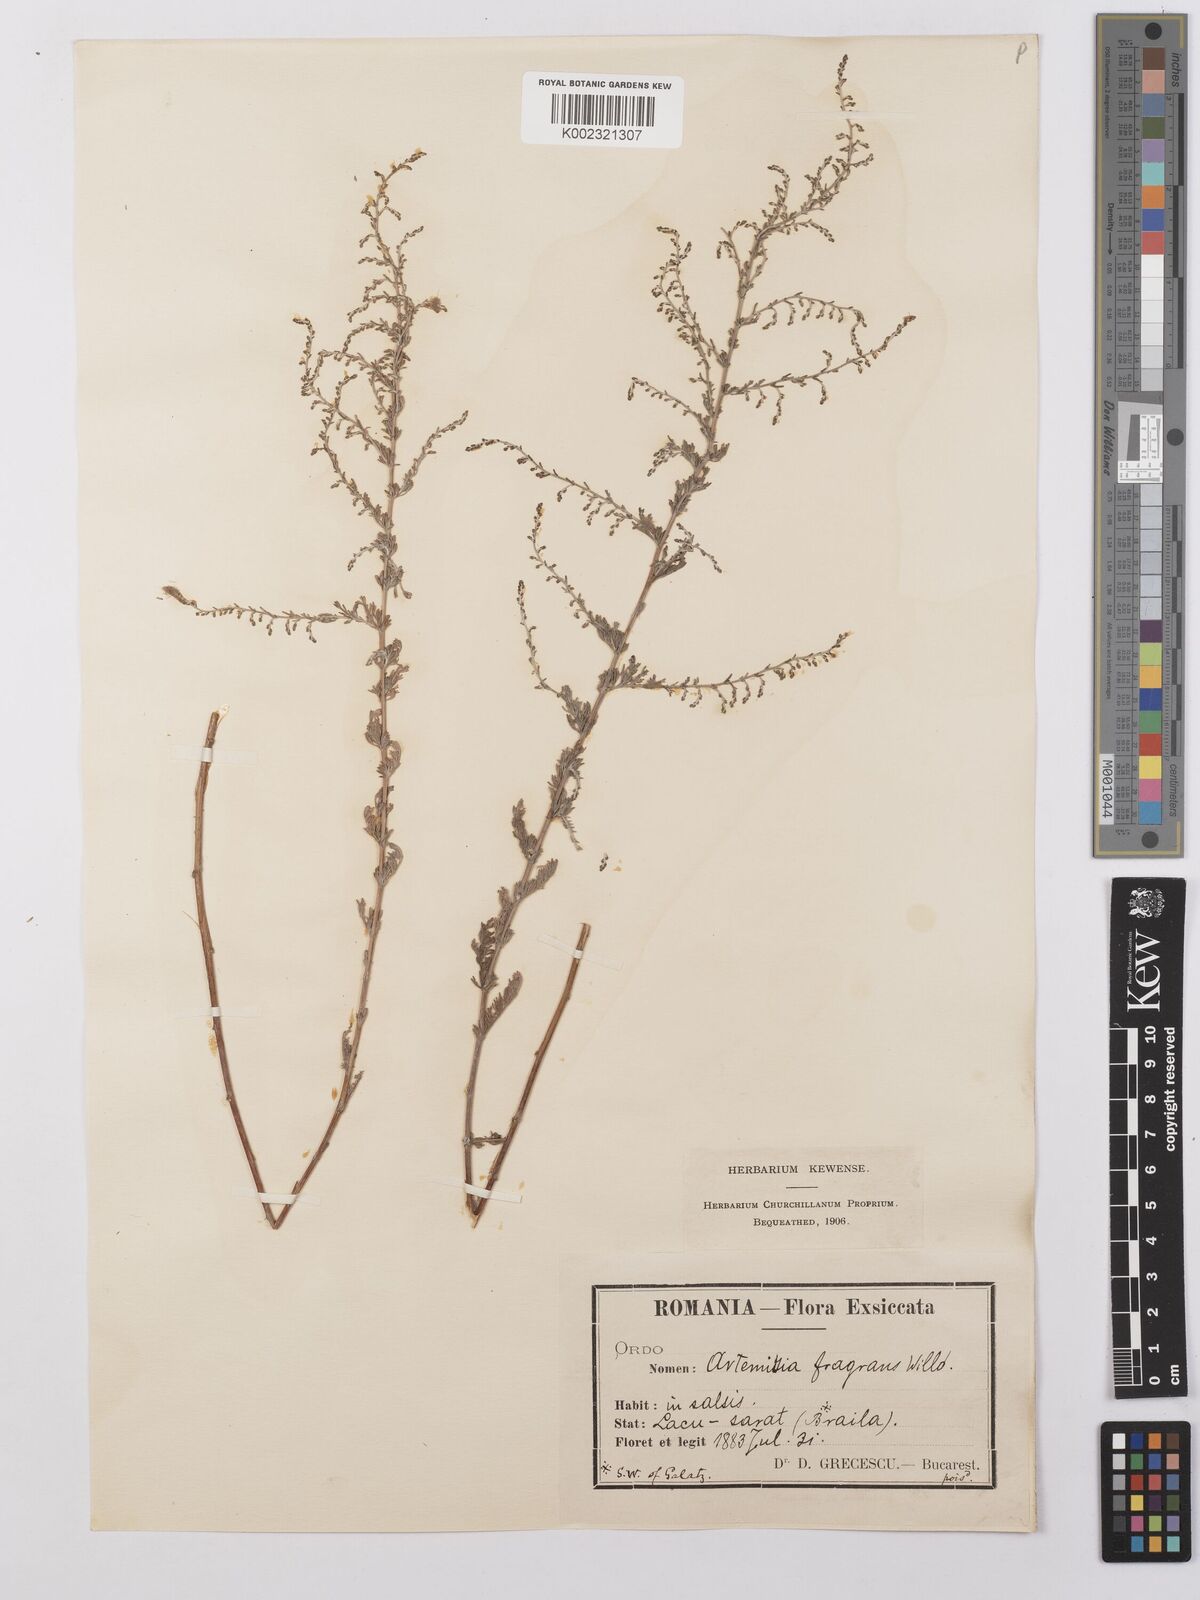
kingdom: Plantae
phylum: Tracheophyta
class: Magnoliopsida
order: Asterales
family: Asteraceae
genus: Artemisia
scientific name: Artemisia fragrans
